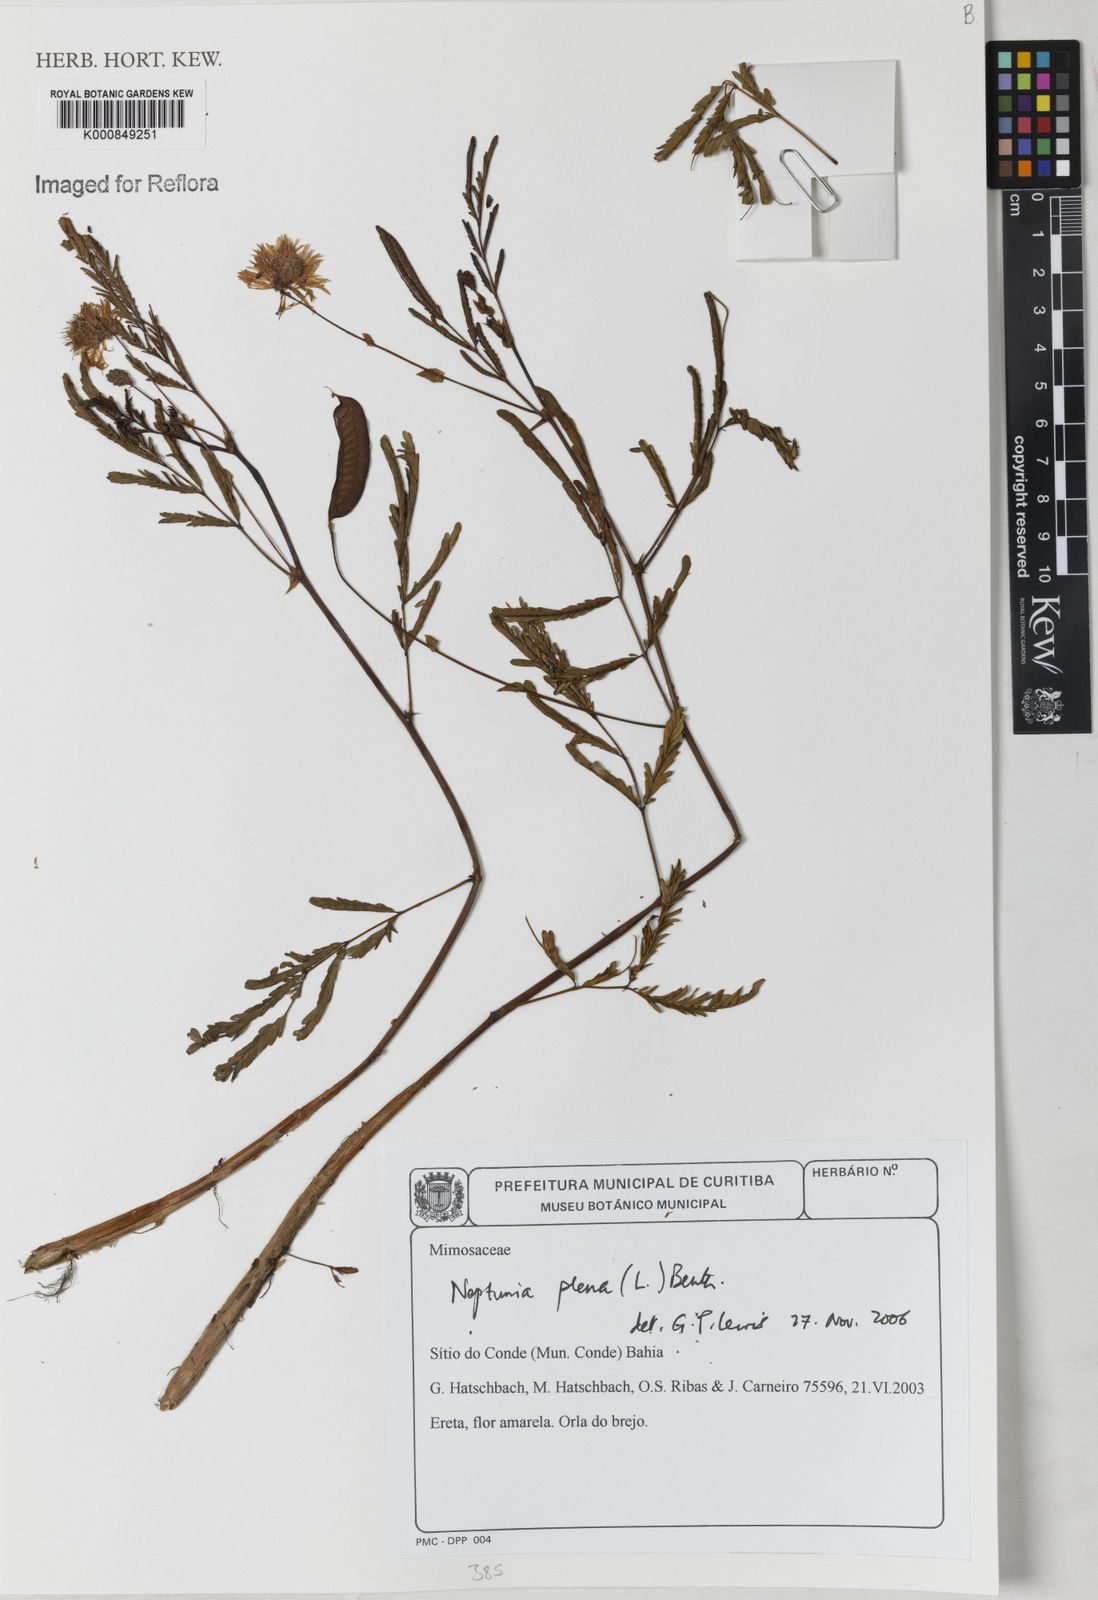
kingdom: Plantae
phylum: Tracheophyta
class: Magnoliopsida
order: Fabales
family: Fabaceae
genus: Neptunia
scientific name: Neptunia plena
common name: Dead and awake
